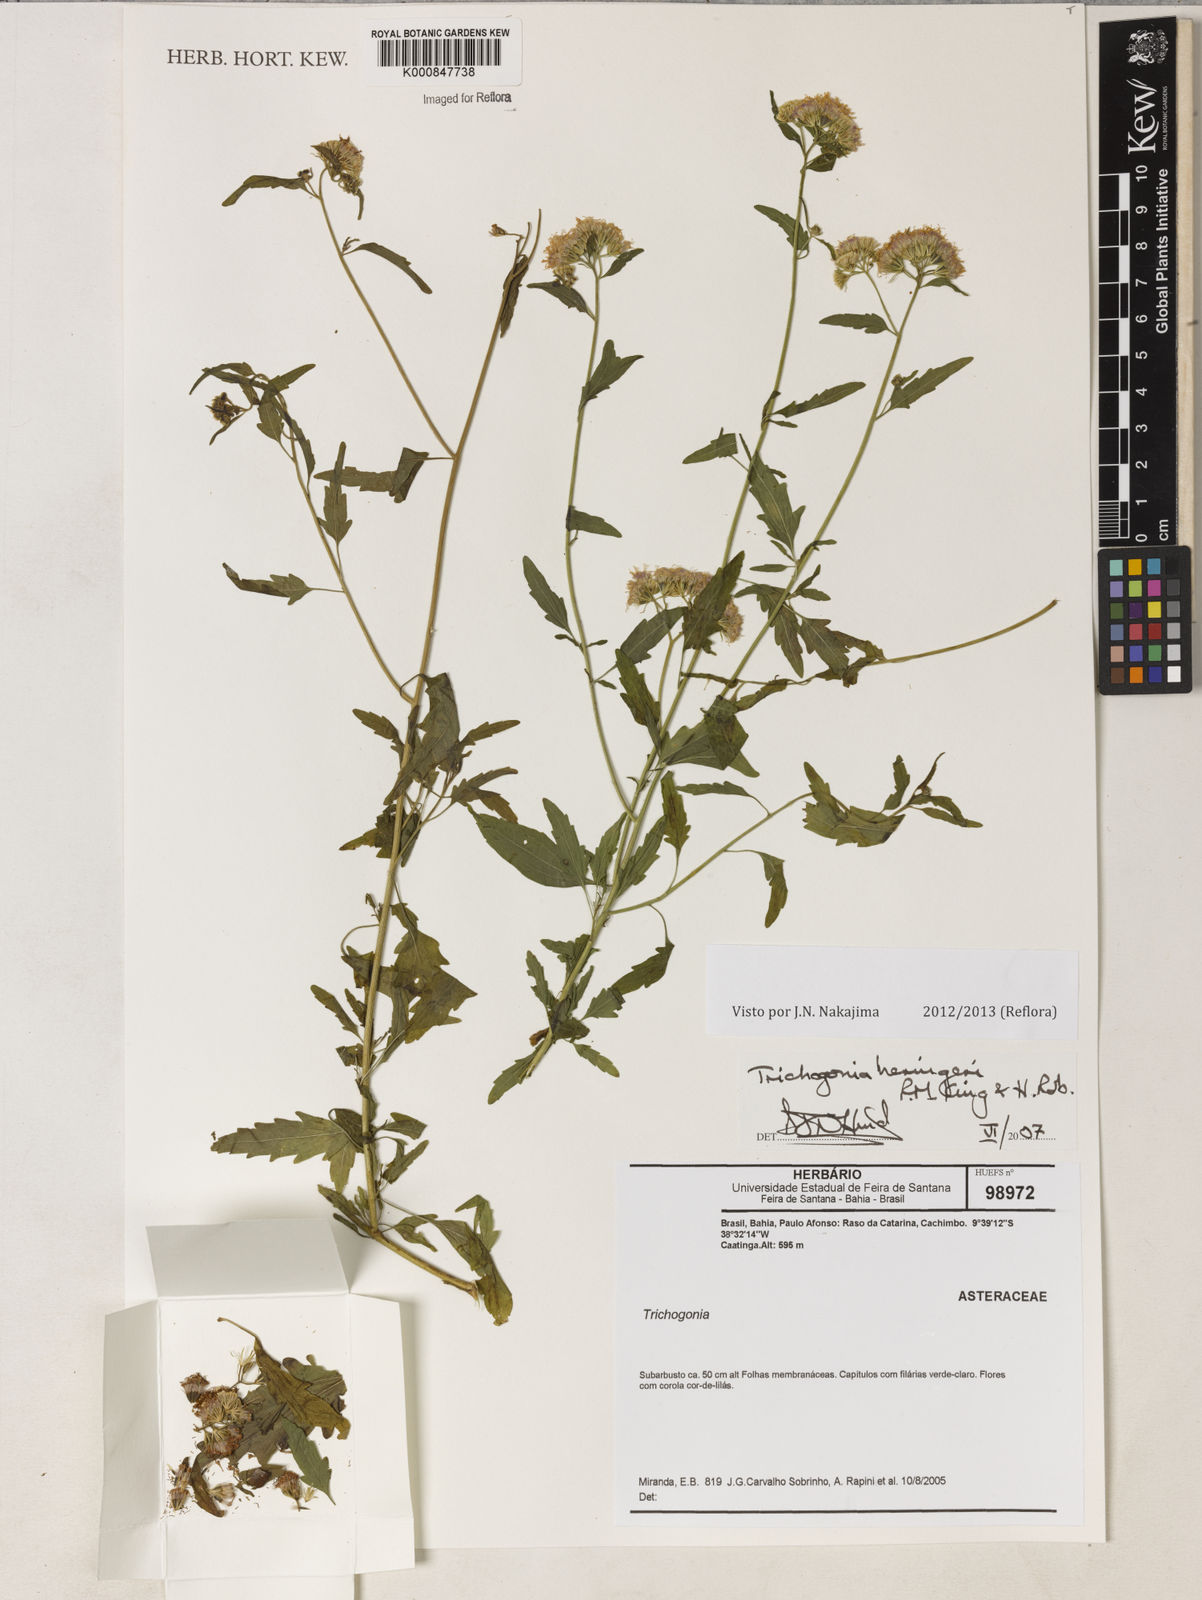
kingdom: Plantae
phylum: Tracheophyta
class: Magnoliopsida
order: Asterales
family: Asteraceae
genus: Trichogonia
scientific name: Trichogonia heringeri
